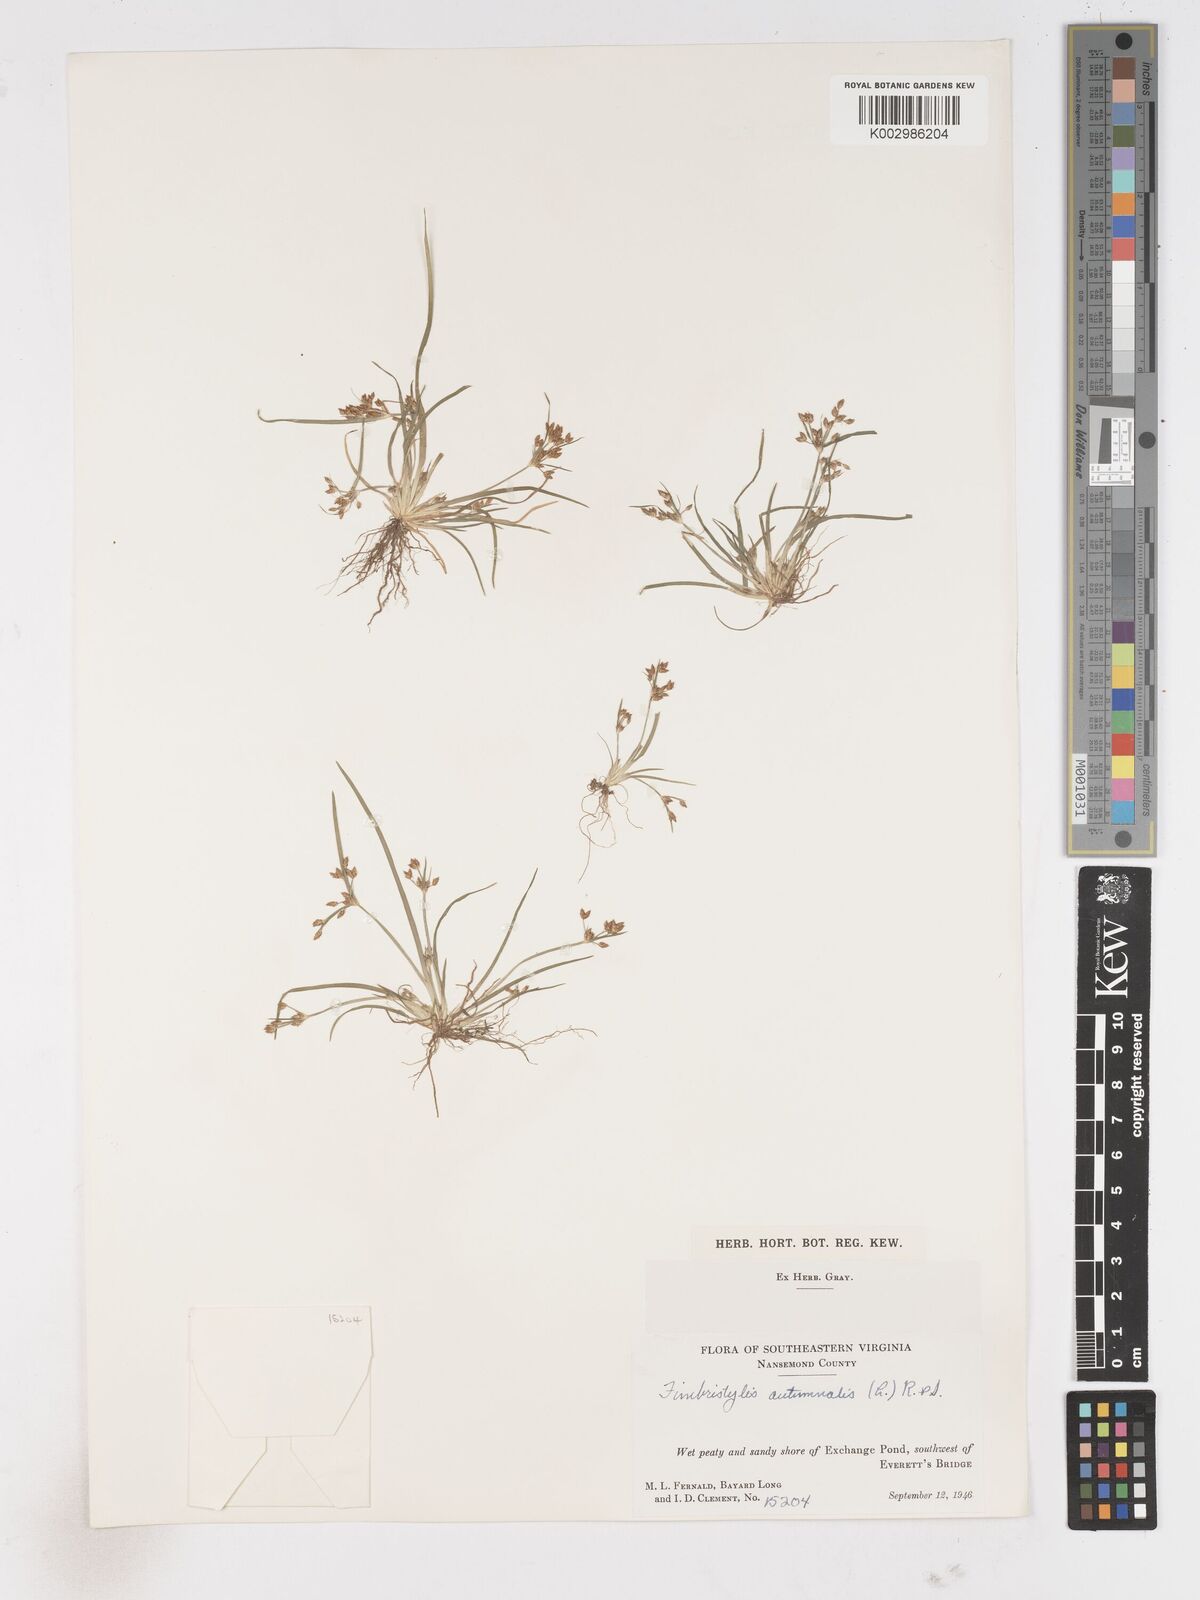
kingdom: Plantae
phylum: Tracheophyta
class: Liliopsida
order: Poales
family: Cyperaceae
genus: Fimbristylis
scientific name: Fimbristylis autumnalis
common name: Slender fimbristylis
